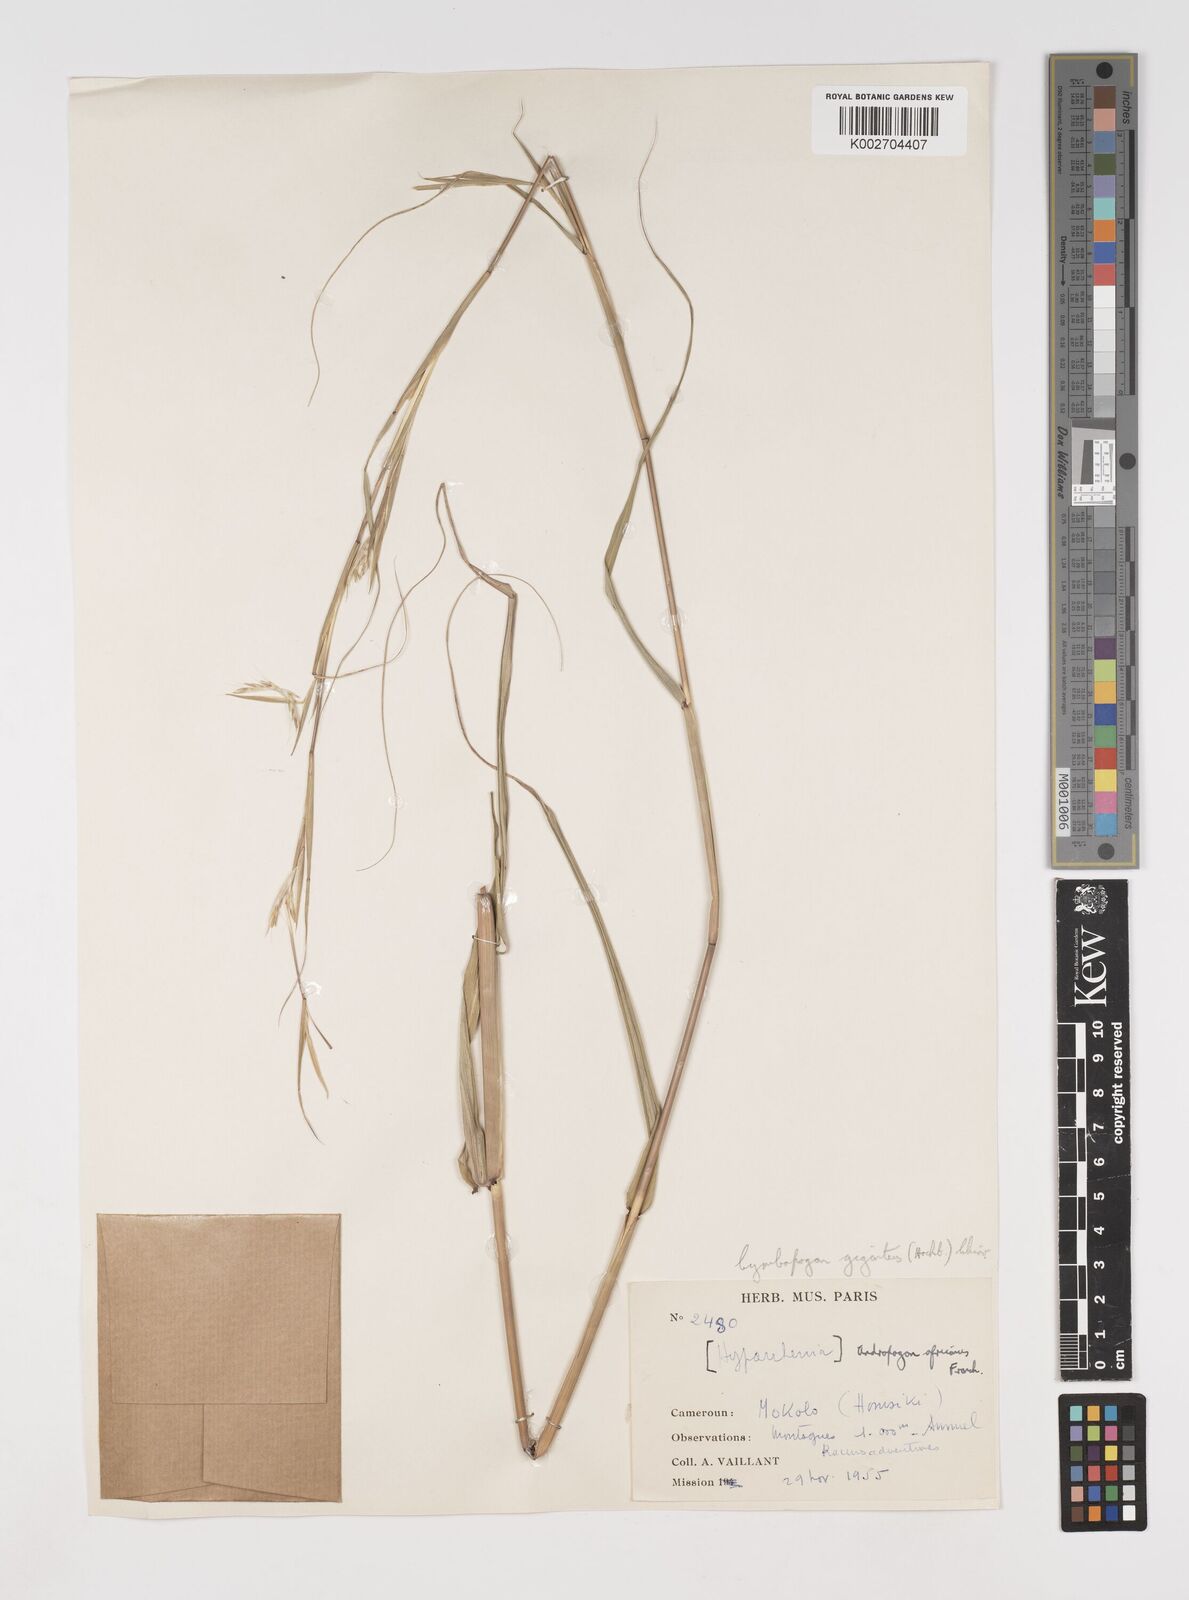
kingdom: Plantae
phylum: Tracheophyta
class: Liliopsida
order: Poales
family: Poaceae
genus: Cymbopogon
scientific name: Cymbopogon giganteus
